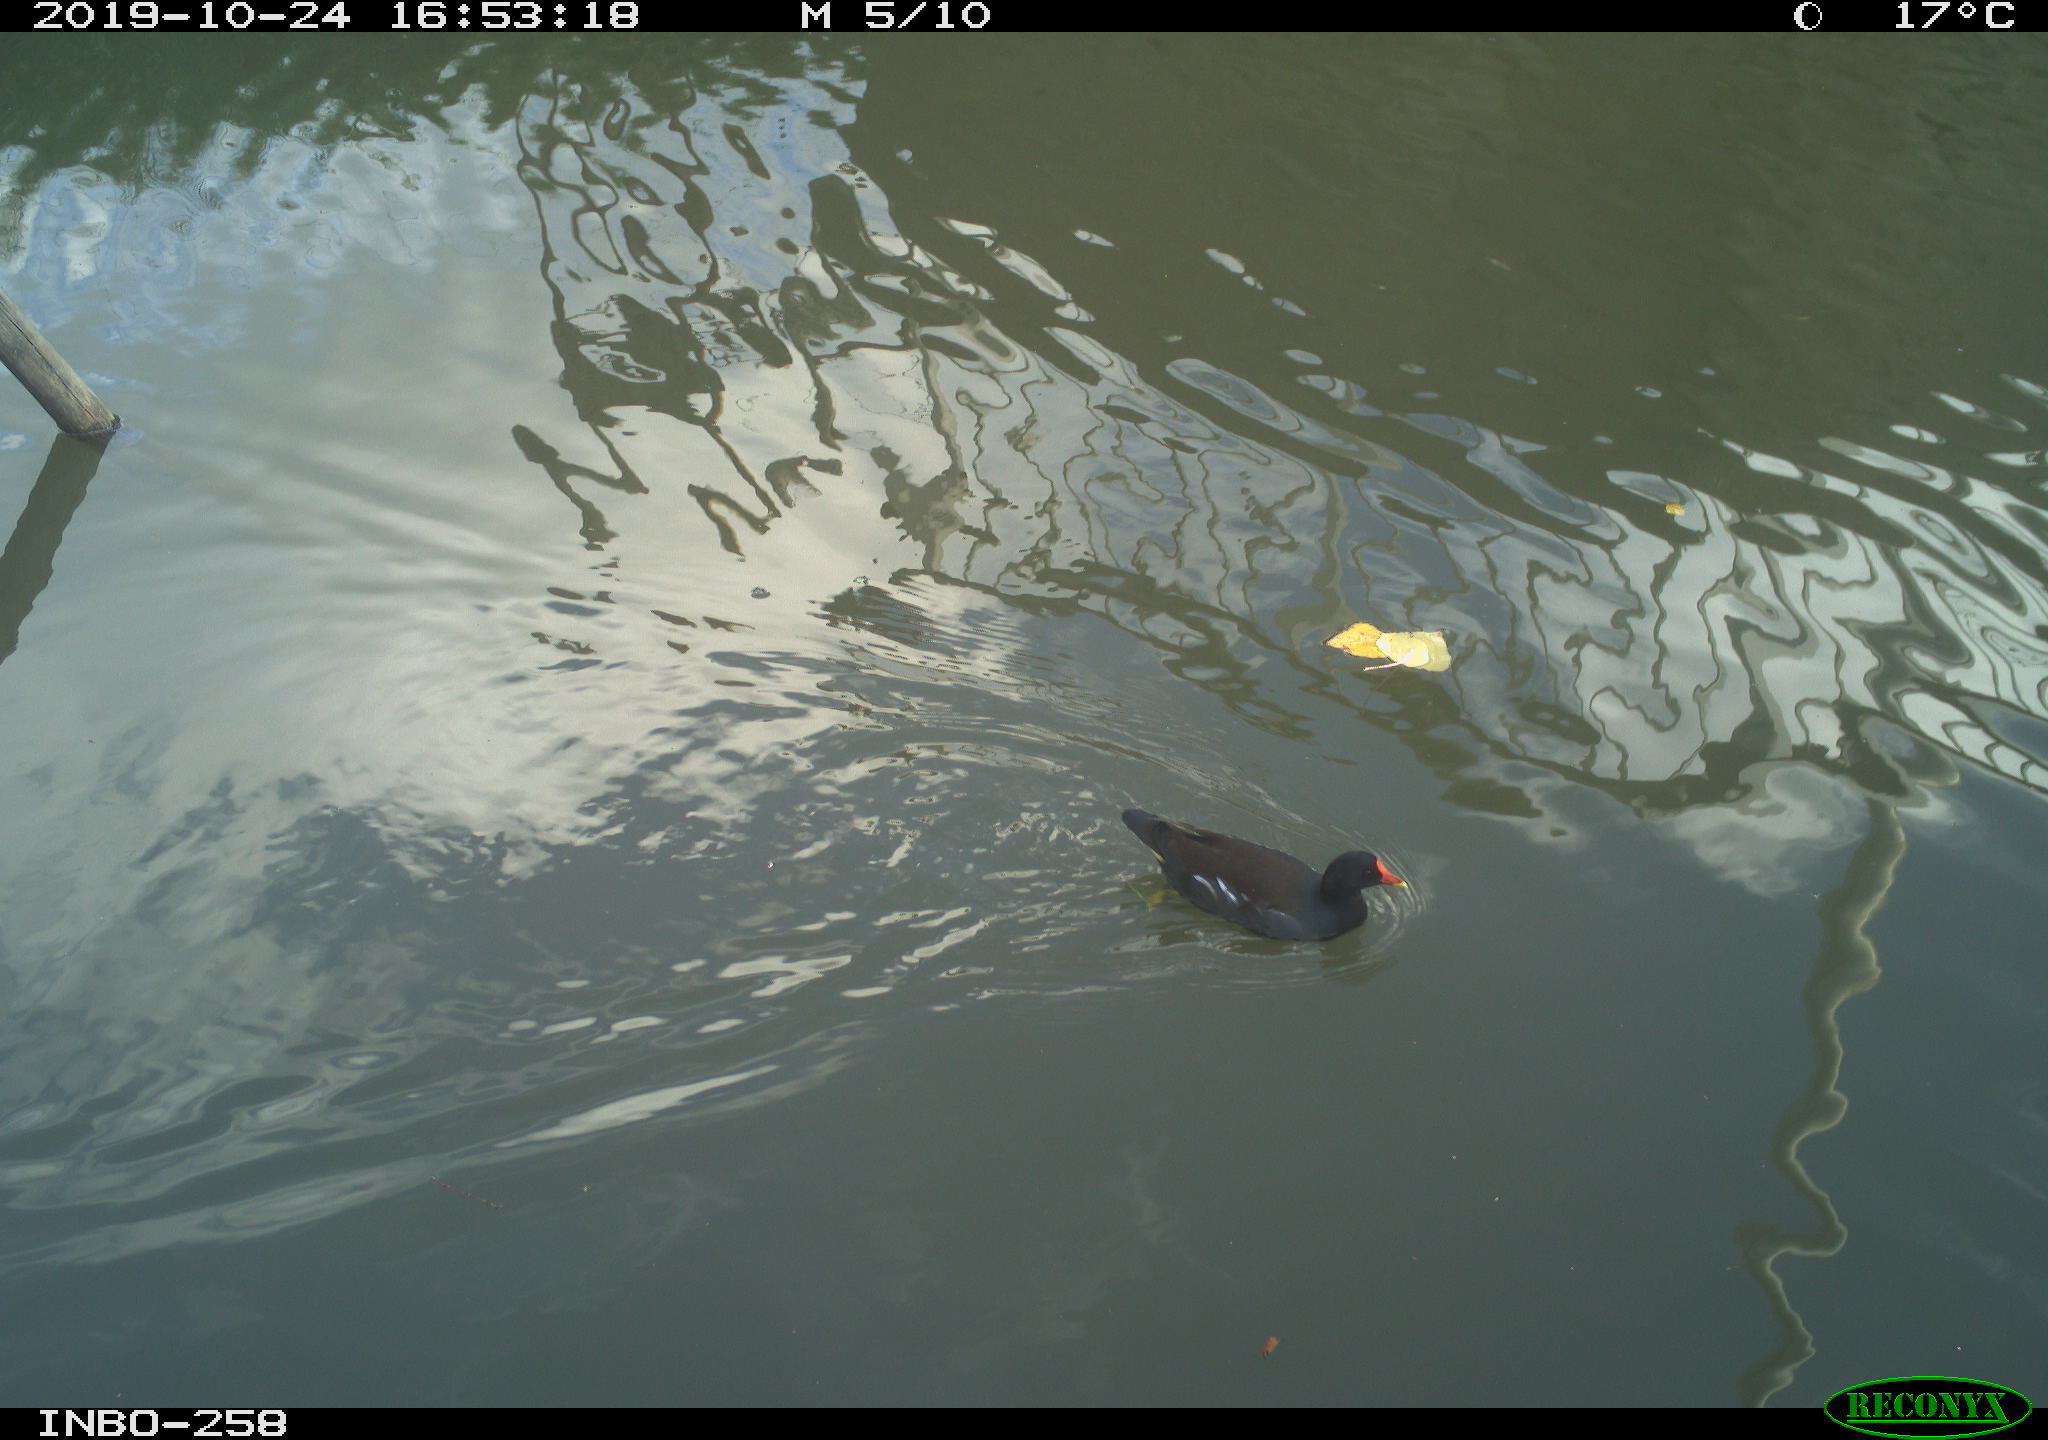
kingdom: Animalia
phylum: Chordata
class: Aves
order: Gruiformes
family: Rallidae
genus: Gallinula
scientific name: Gallinula chloropus
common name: Common moorhen
